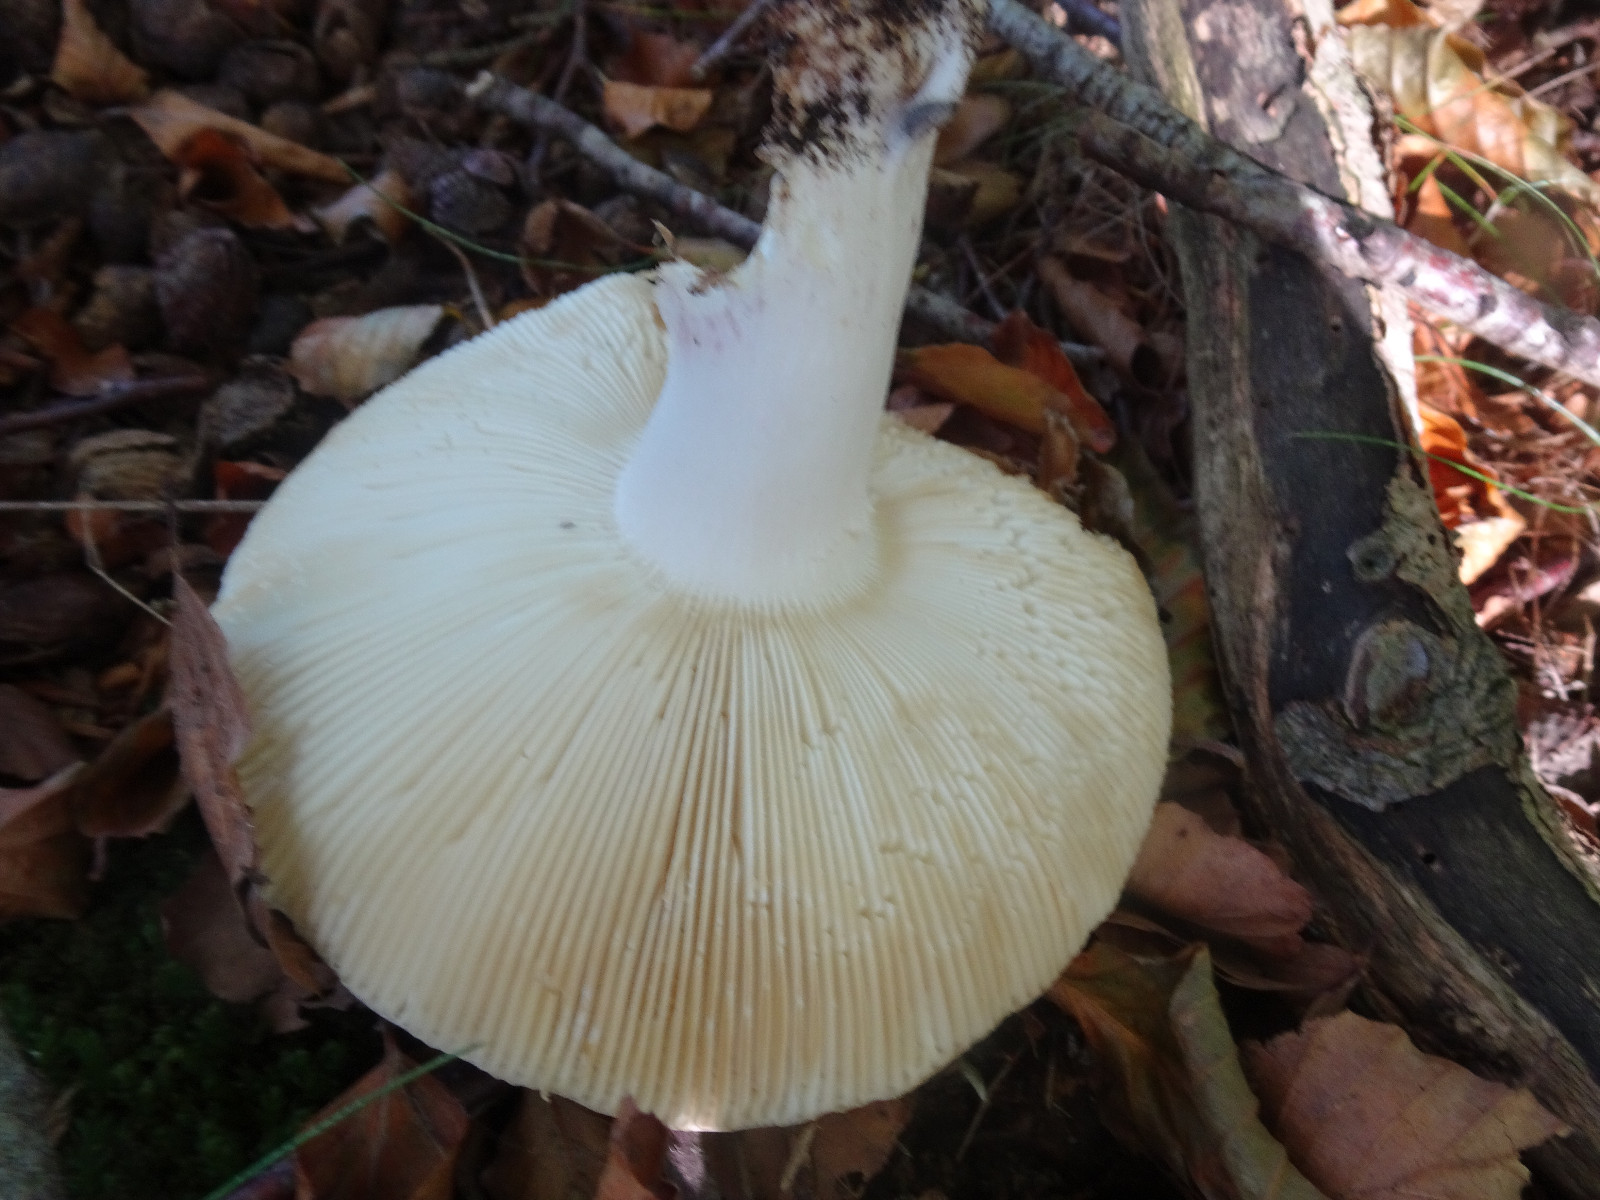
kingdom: Fungi
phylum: Basidiomycota
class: Agaricomycetes
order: Russulales
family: Russulaceae
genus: Russula
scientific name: Russula
